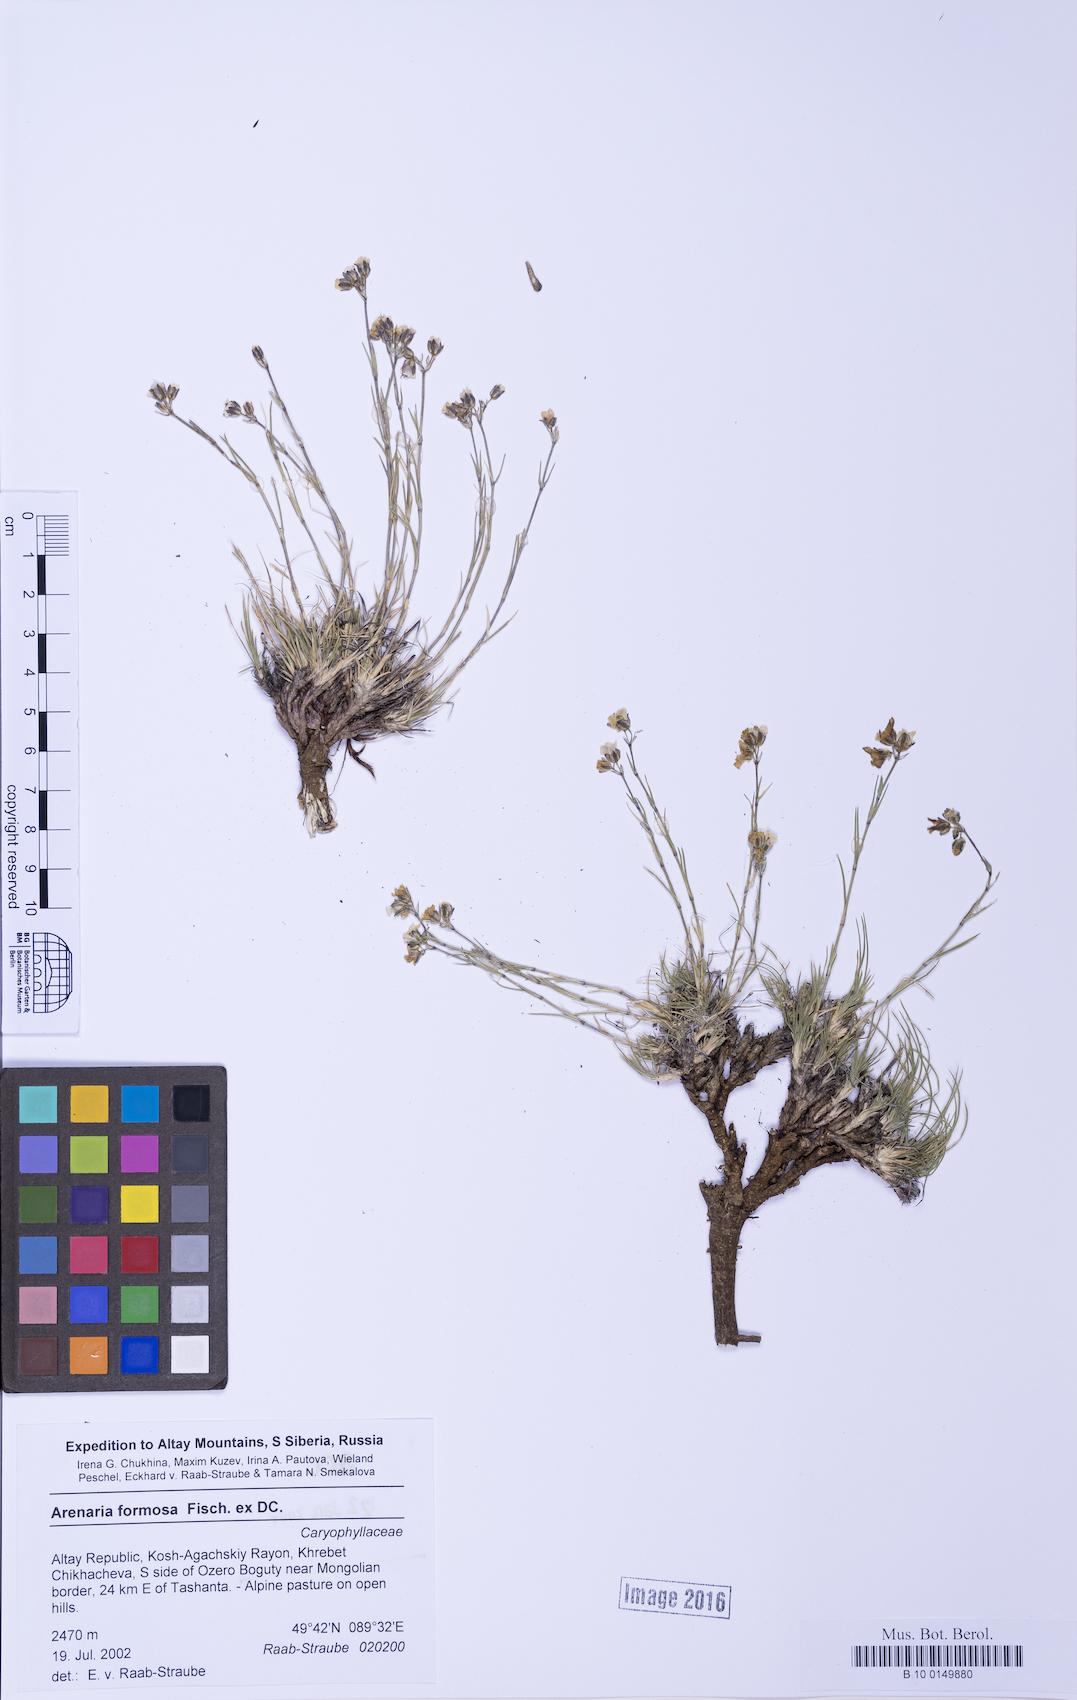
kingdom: Plantae
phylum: Tracheophyta
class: Magnoliopsida
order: Caryophyllales
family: Caryophyllaceae
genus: Eremogone
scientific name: Eremogone formosa
